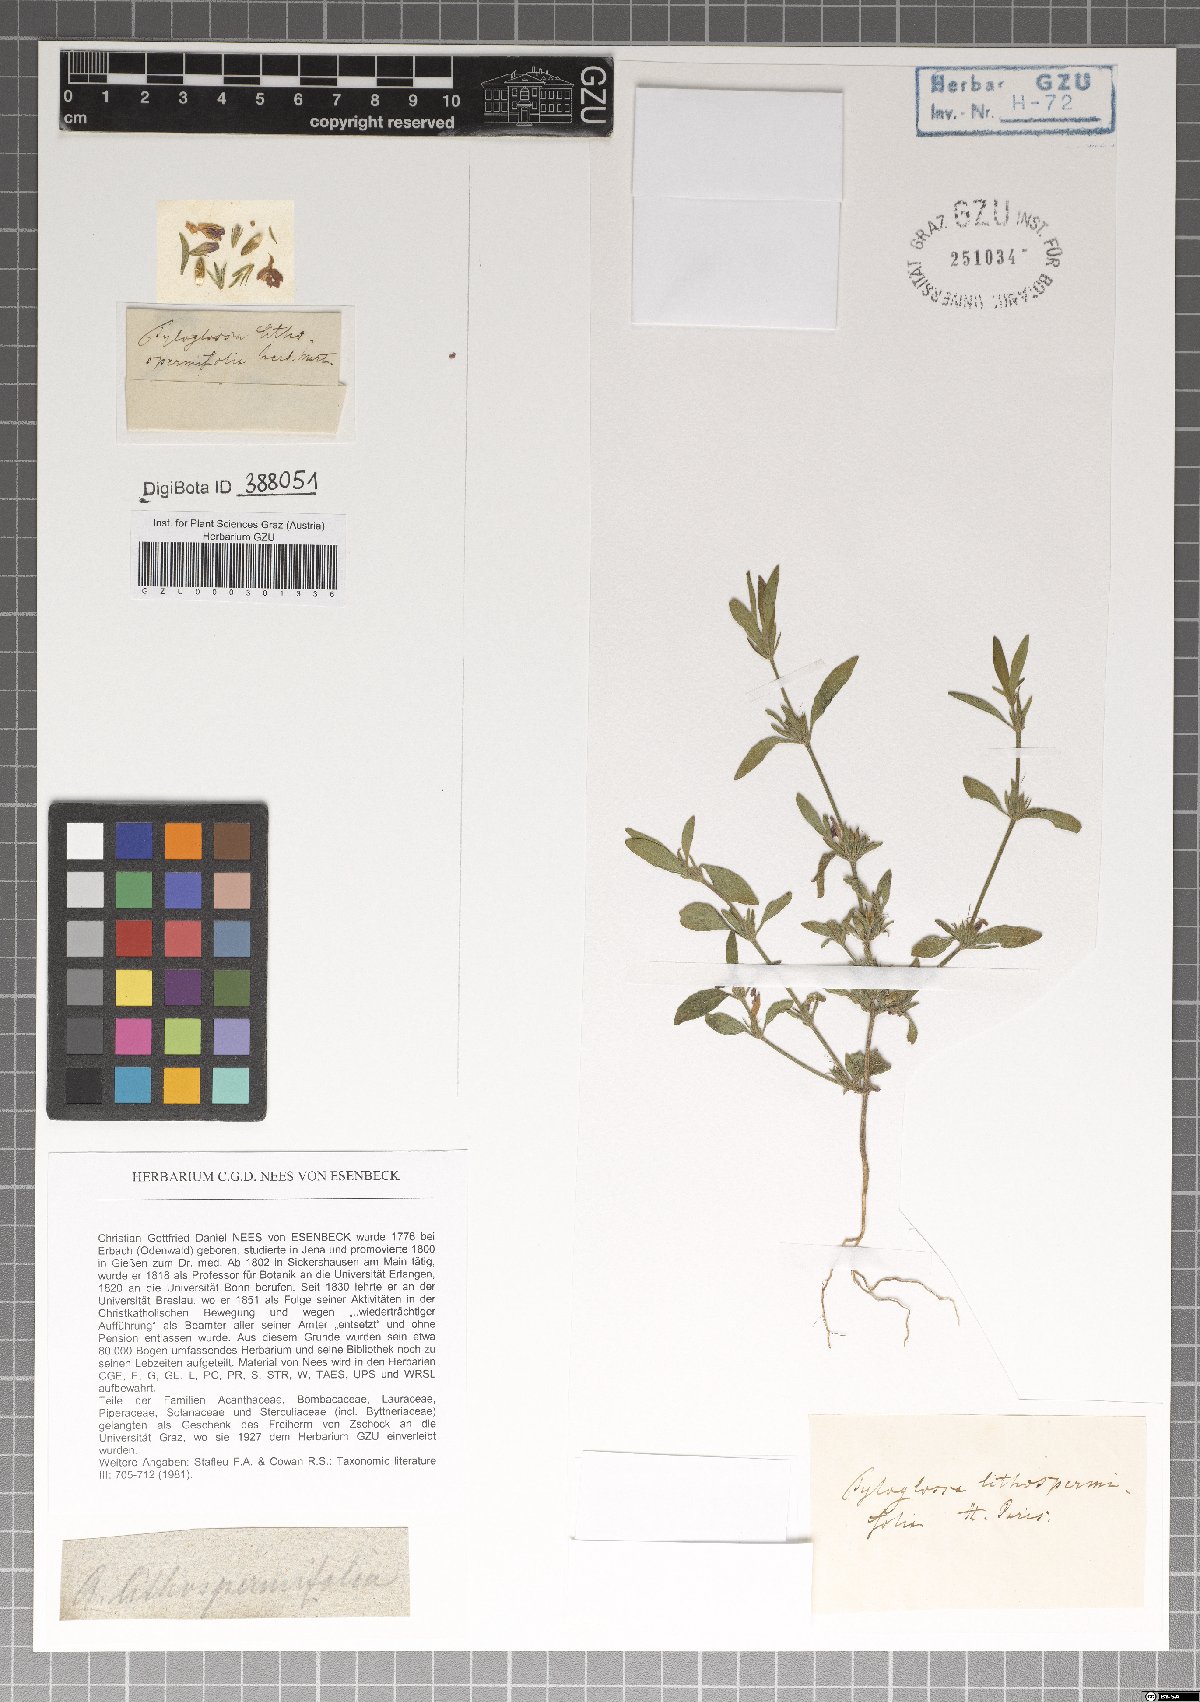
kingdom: Plantae
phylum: Tracheophyta
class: Magnoliopsida
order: Lamiales
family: Acanthaceae
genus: Justicia
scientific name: Justicia ladanoides
